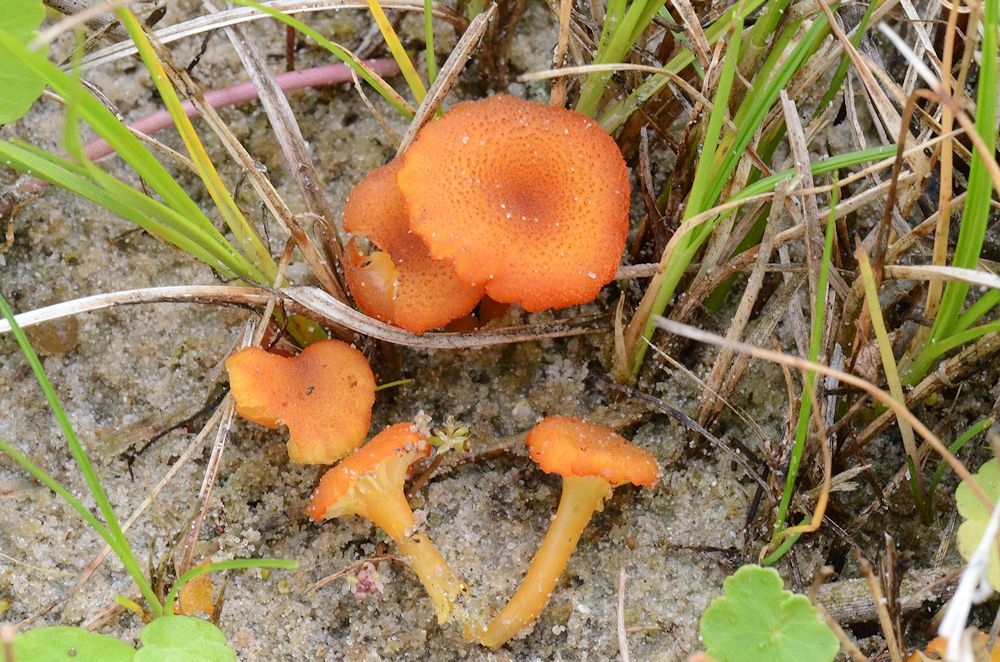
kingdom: Fungi
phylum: Basidiomycota
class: Agaricomycetes
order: Agaricales
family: Hygrophoraceae
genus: Hygrocybe
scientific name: Hygrocybe coccineocrenata
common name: tørvemos-vokshat
